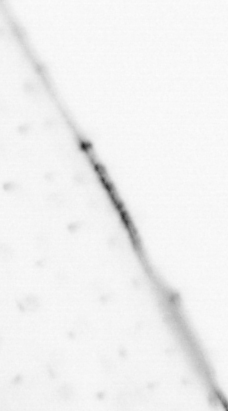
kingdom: Animalia
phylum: Chaetognatha
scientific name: Chaetognatha
